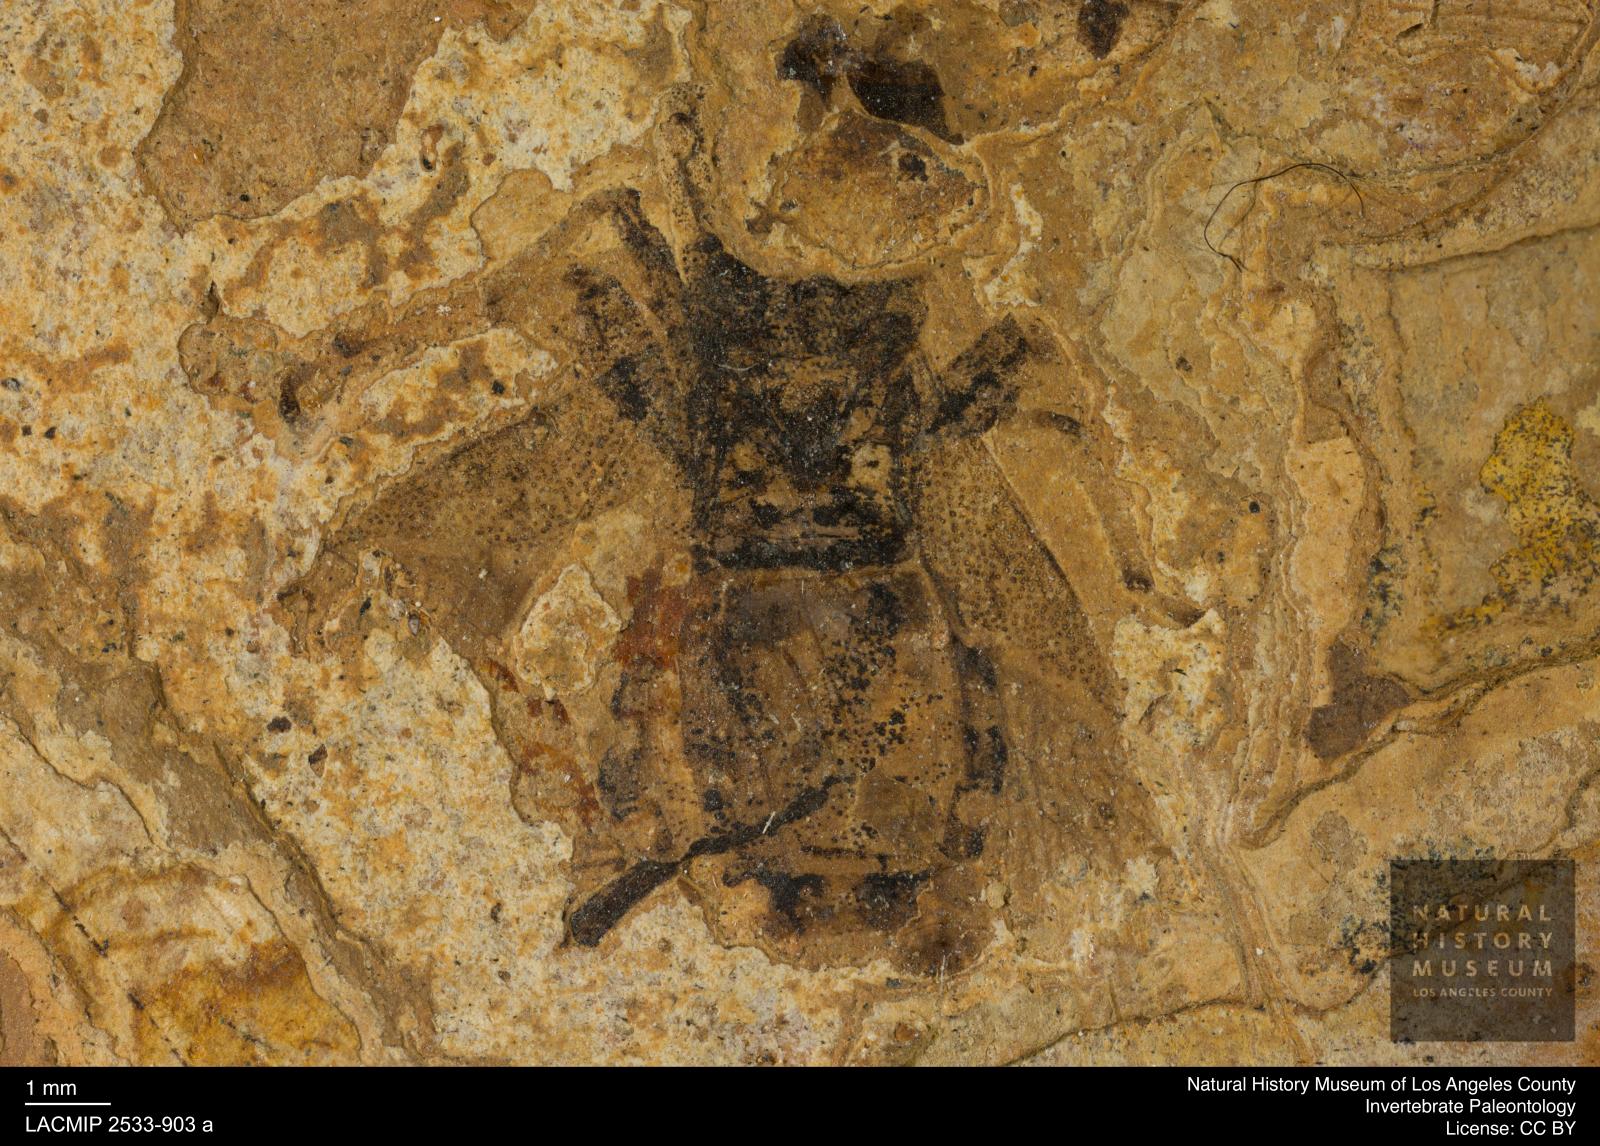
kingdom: Animalia
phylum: Arthropoda
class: Insecta
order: Hemiptera
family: Coreidae
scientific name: Coreidae
